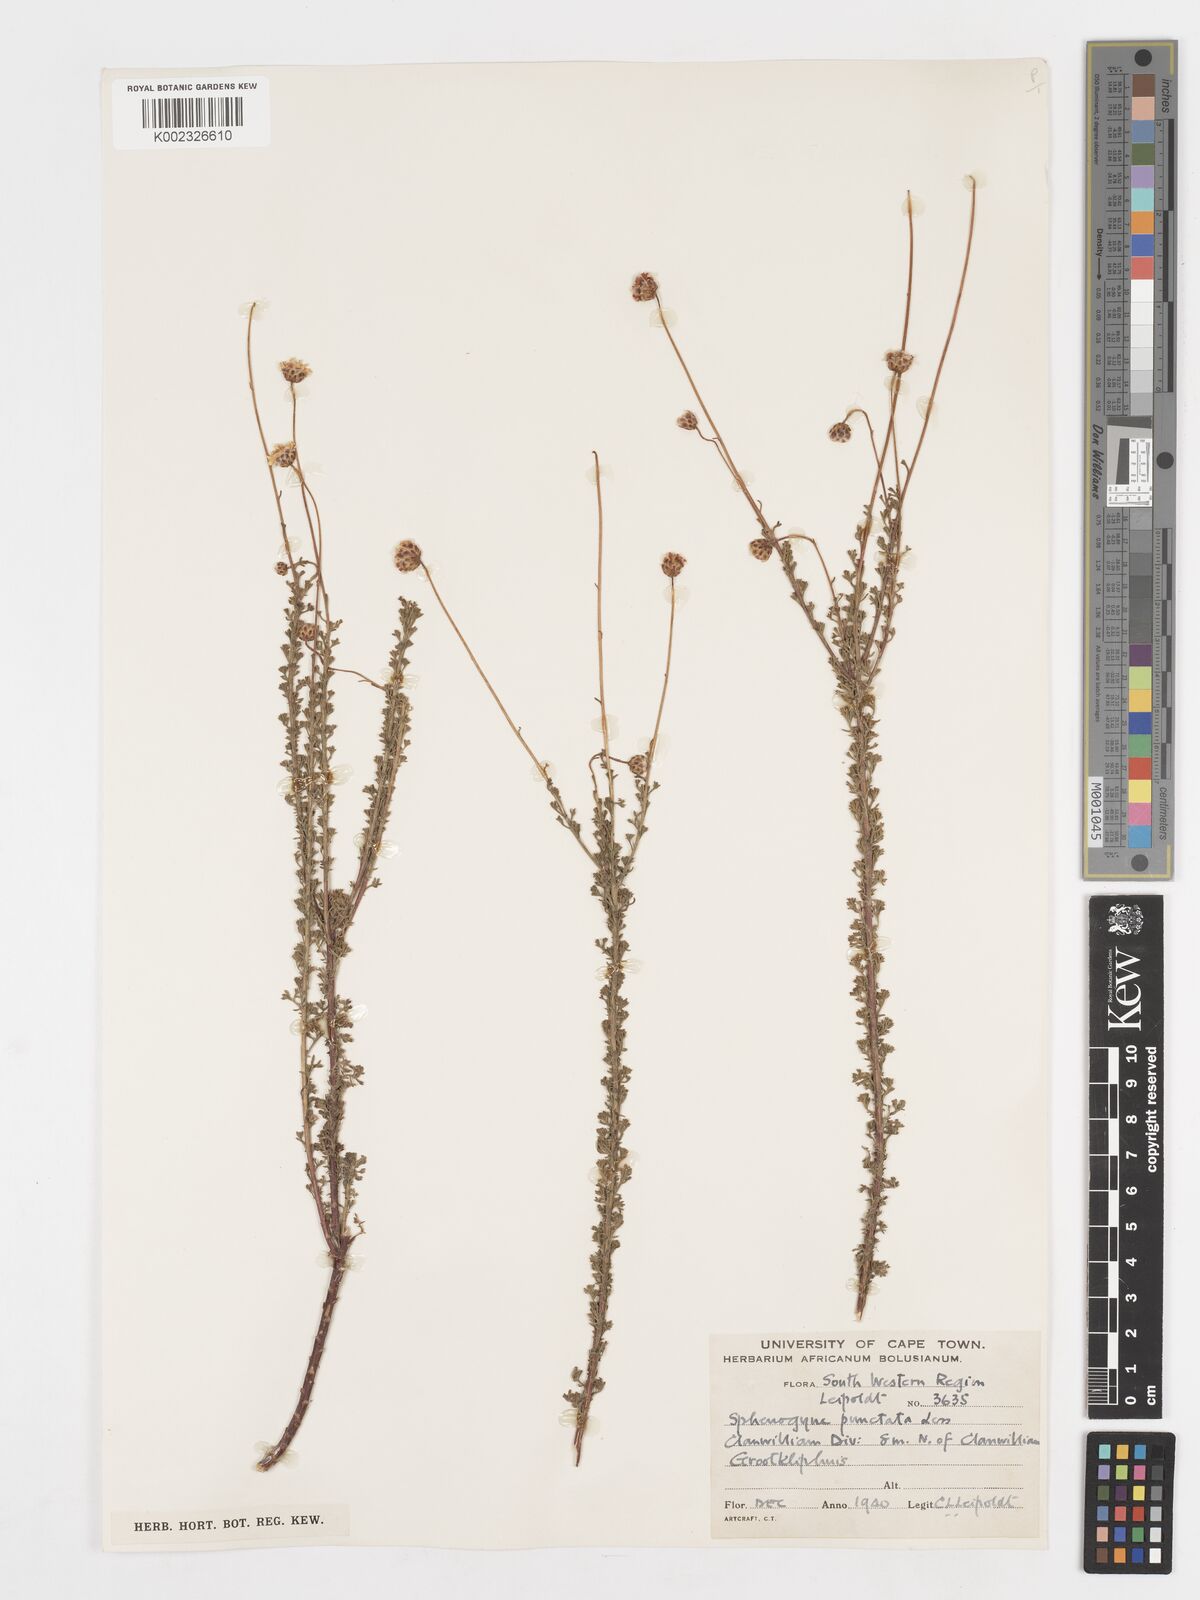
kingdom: Plantae
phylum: Tracheophyta
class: Magnoliopsida
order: Asterales
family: Asteraceae
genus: Ursinia
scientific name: Ursinia punctata
